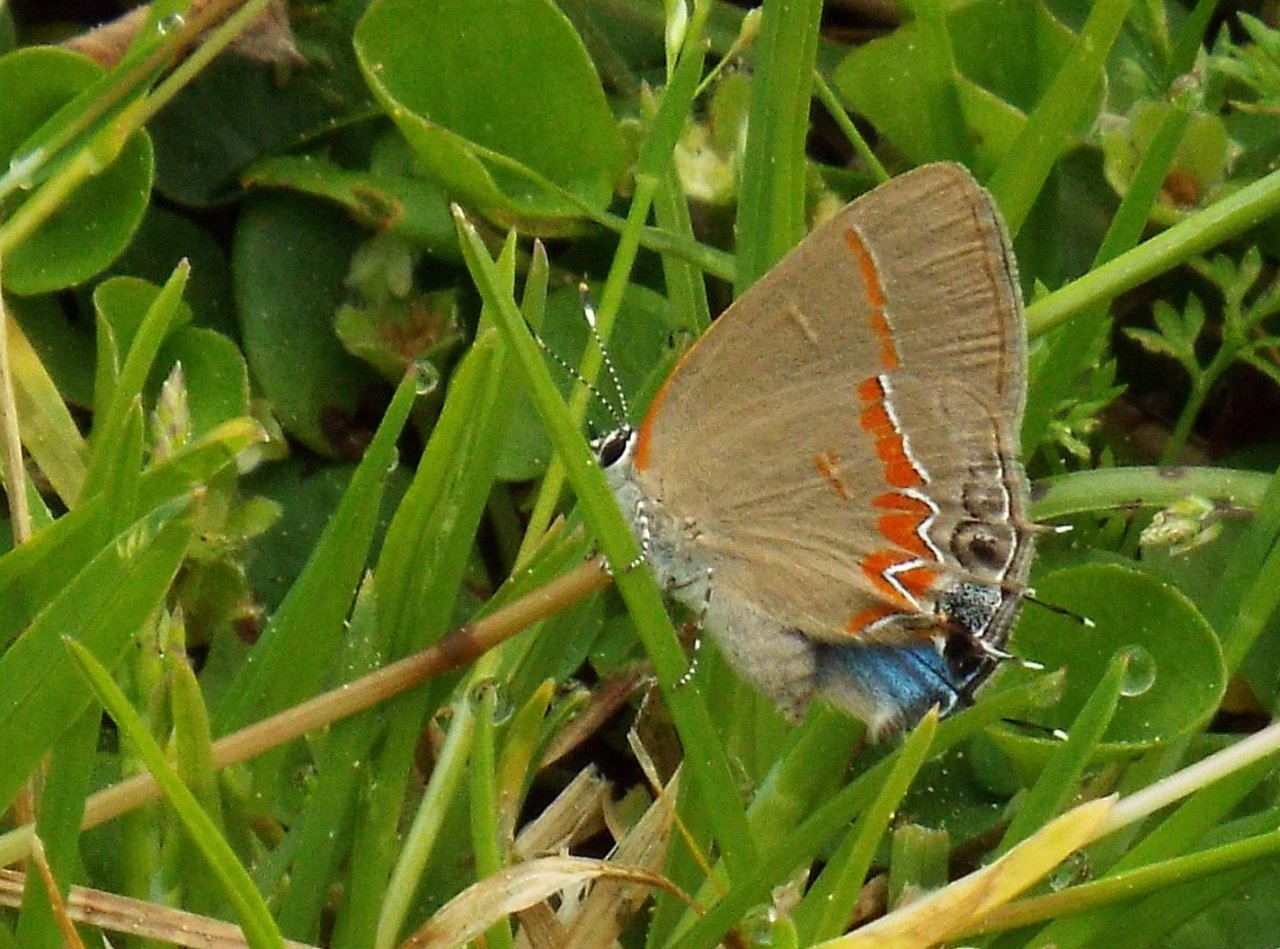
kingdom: Animalia
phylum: Arthropoda
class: Insecta
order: Lepidoptera
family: Lycaenidae
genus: Calycopis
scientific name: Calycopis cecrops
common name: Red-banded Hairstreak
